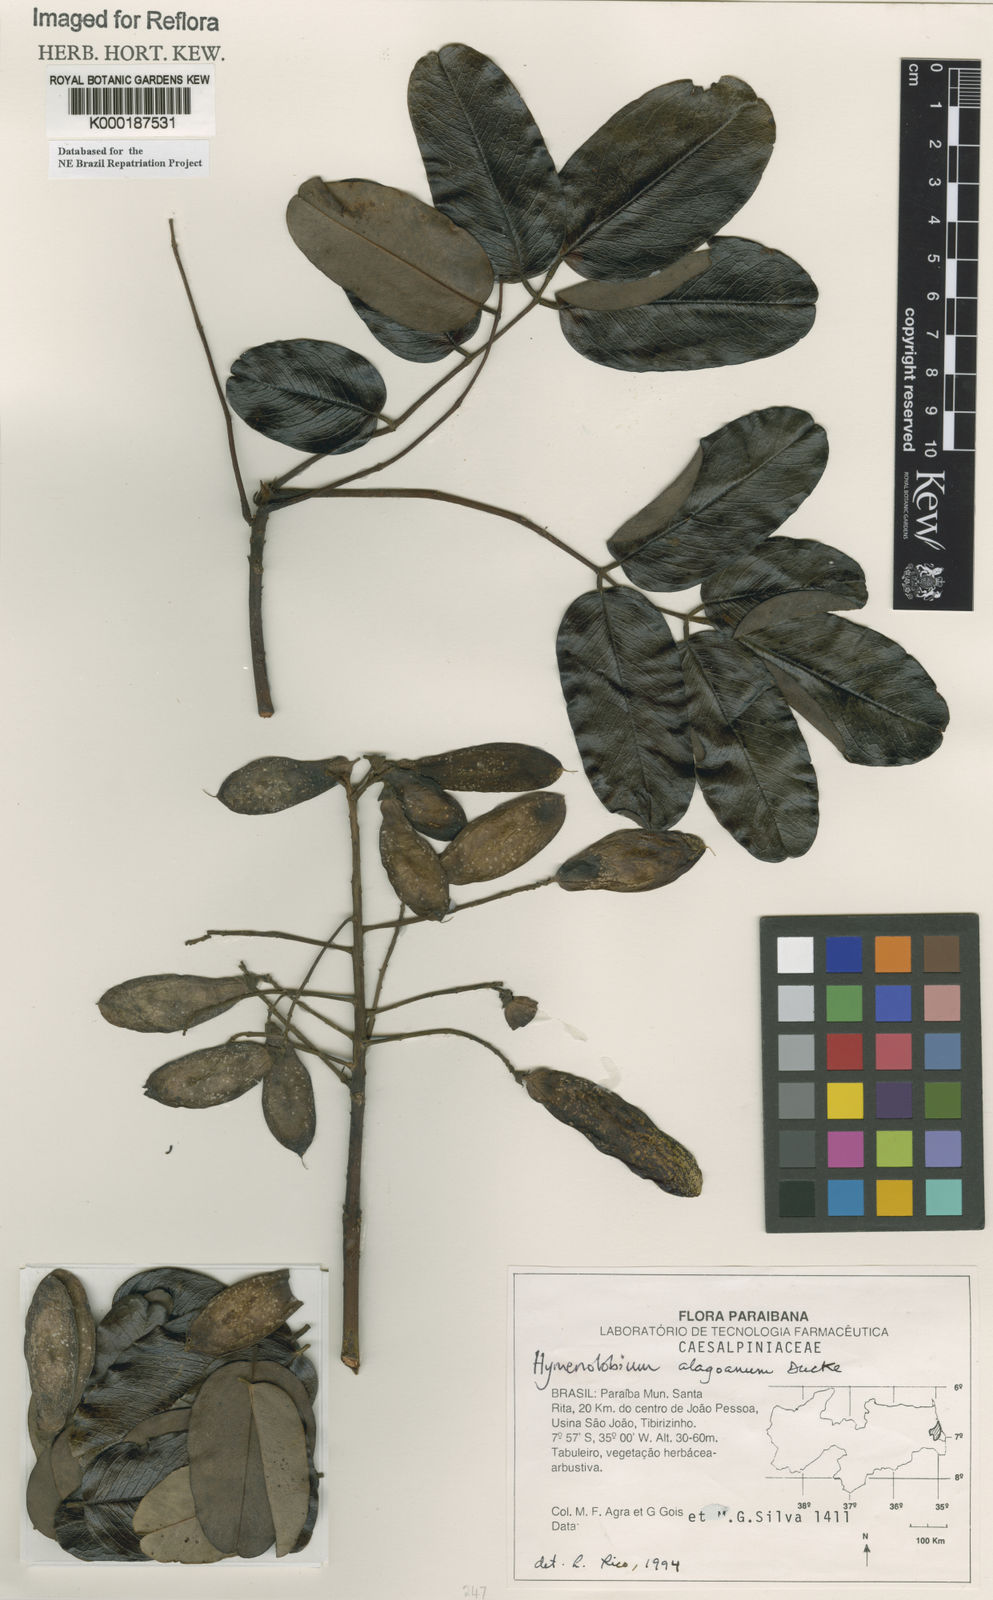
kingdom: Plantae
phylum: Tracheophyta
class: Magnoliopsida
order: Fabales
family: Fabaceae
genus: Hymenolobium
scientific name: Hymenolobium alagoanum
